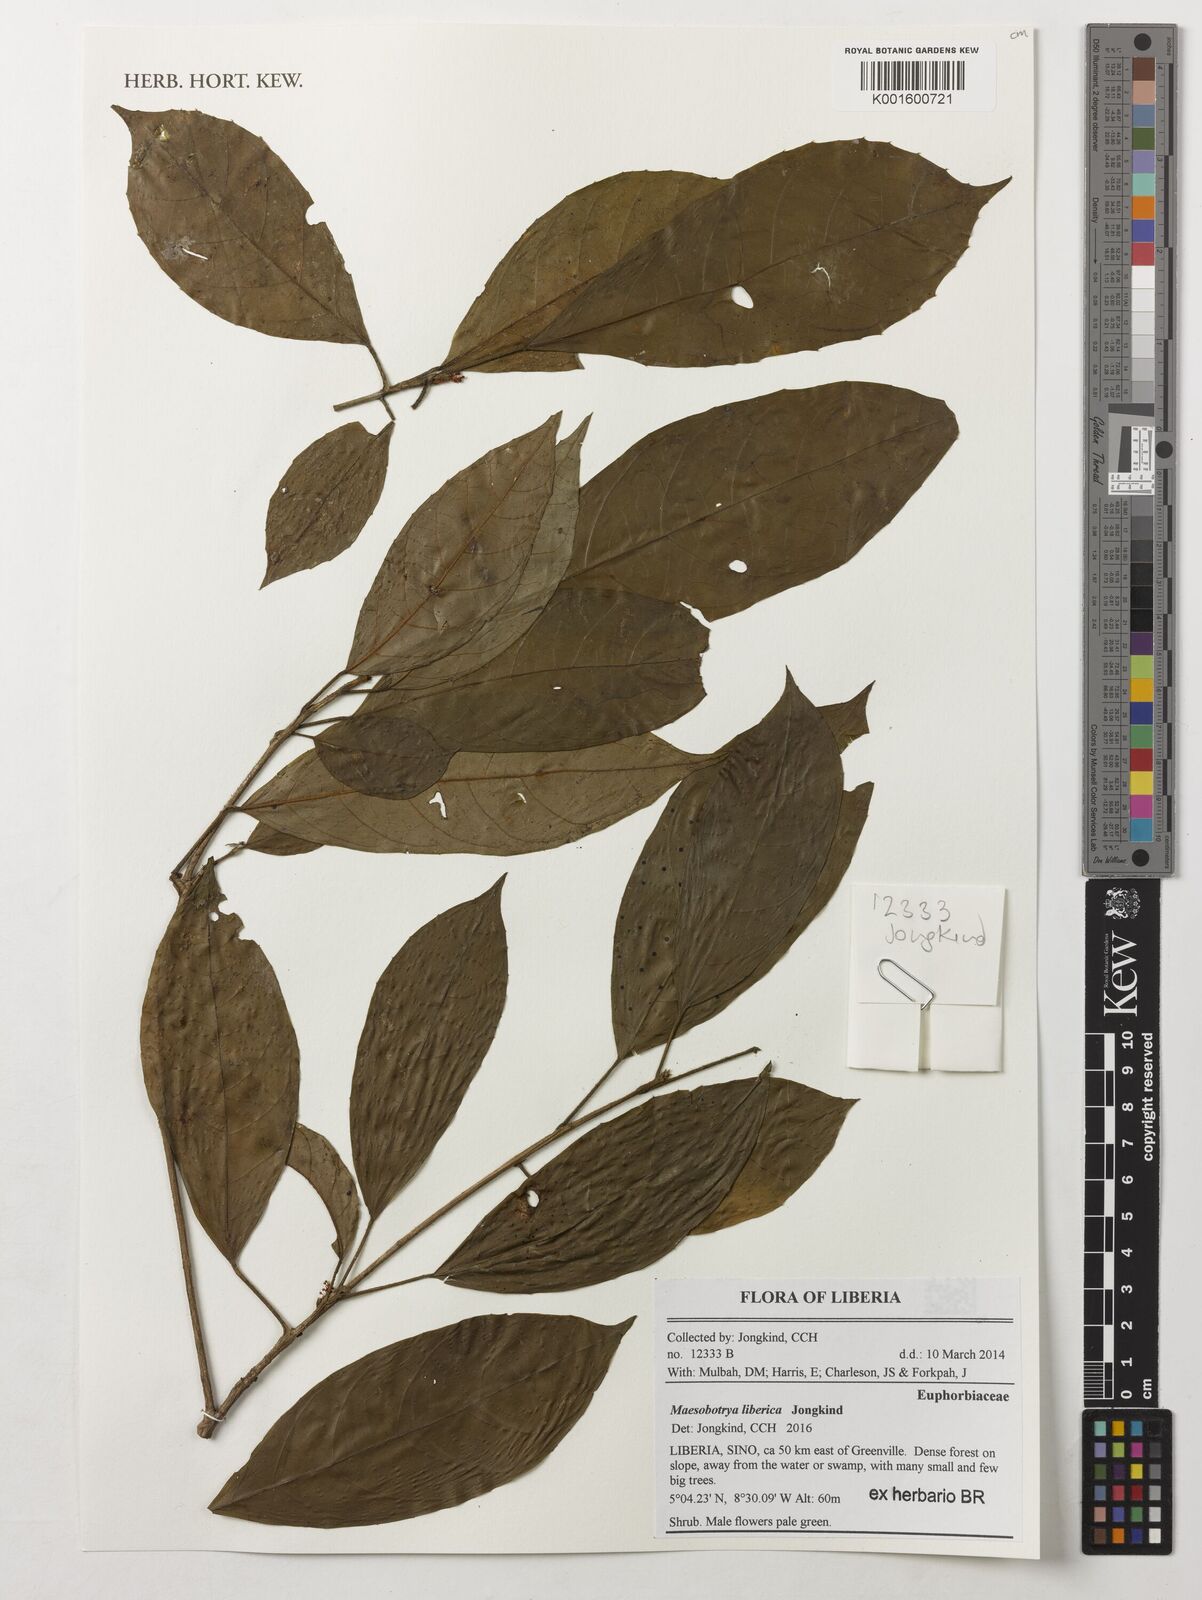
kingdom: Plantae
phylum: Tracheophyta
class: Magnoliopsida
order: Malpighiales
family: Phyllanthaceae
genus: Maesobotrya
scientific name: Maesobotrya liberica
